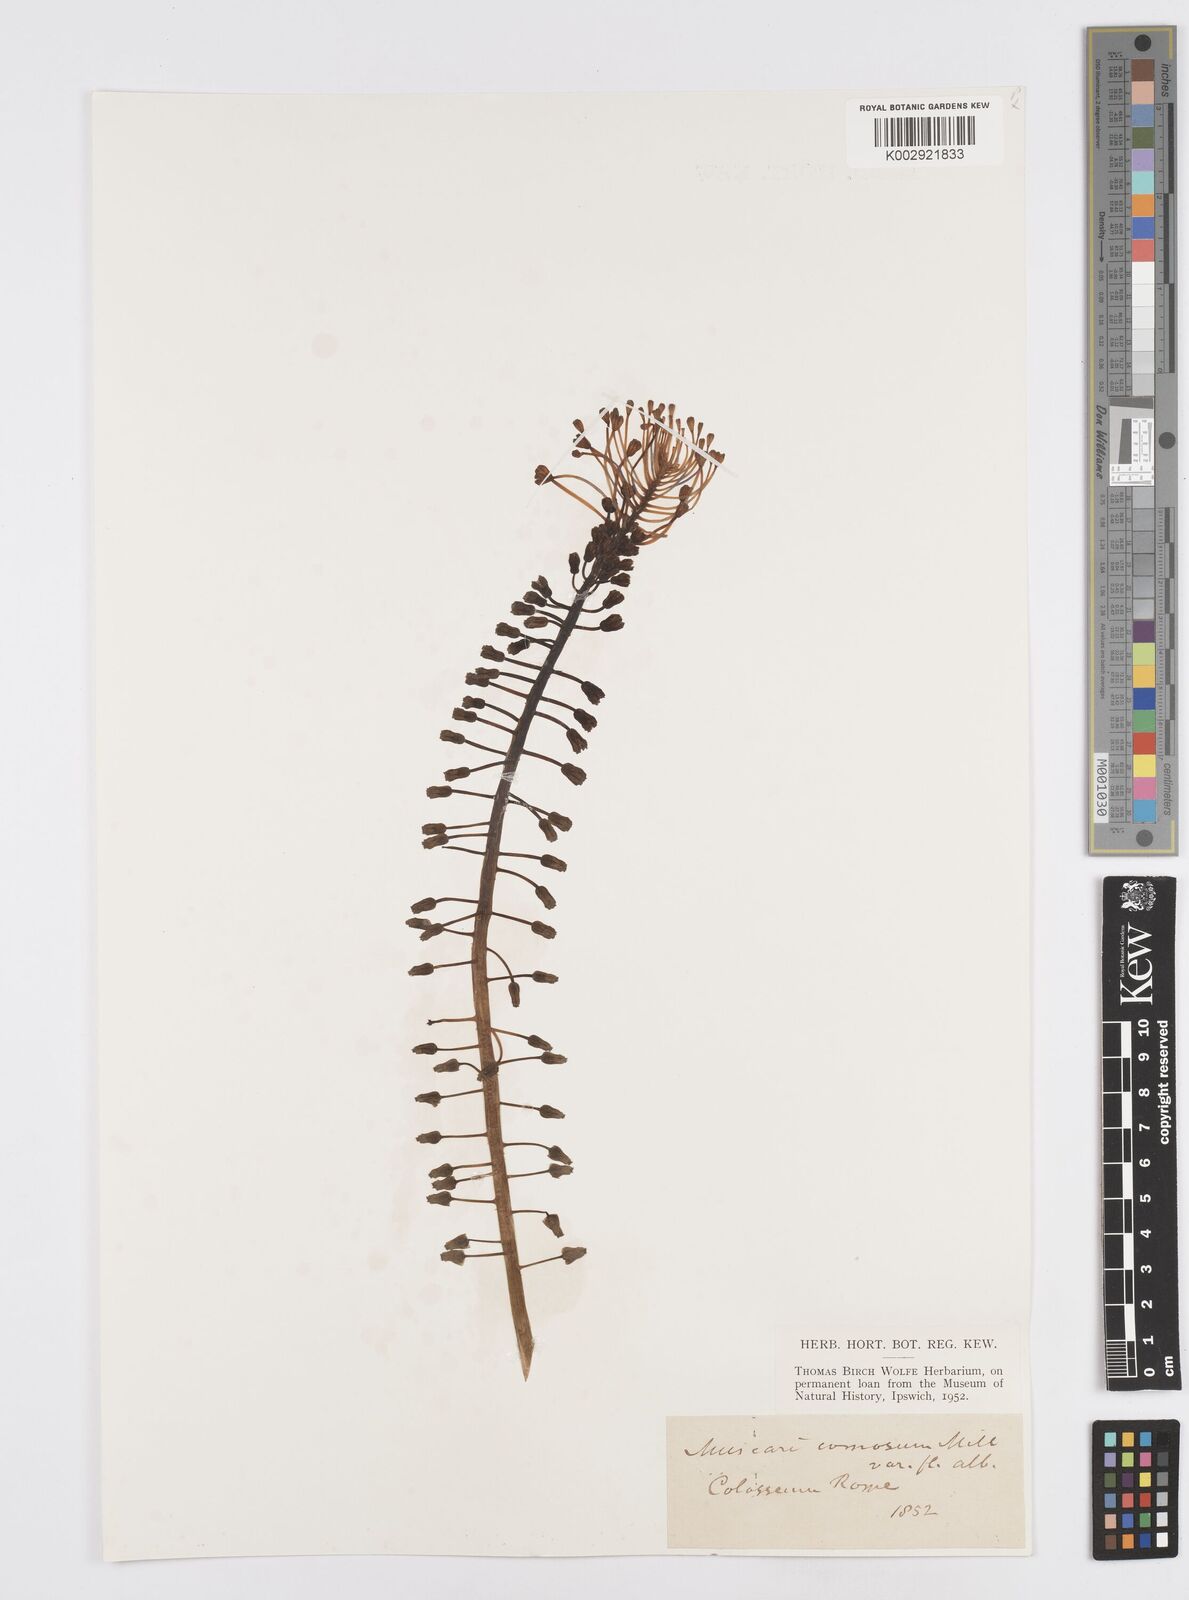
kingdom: Plantae
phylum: Tracheophyta
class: Liliopsida
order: Asparagales
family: Asparagaceae
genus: Muscari
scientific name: Muscari comosum
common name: Tassel hyacinth
